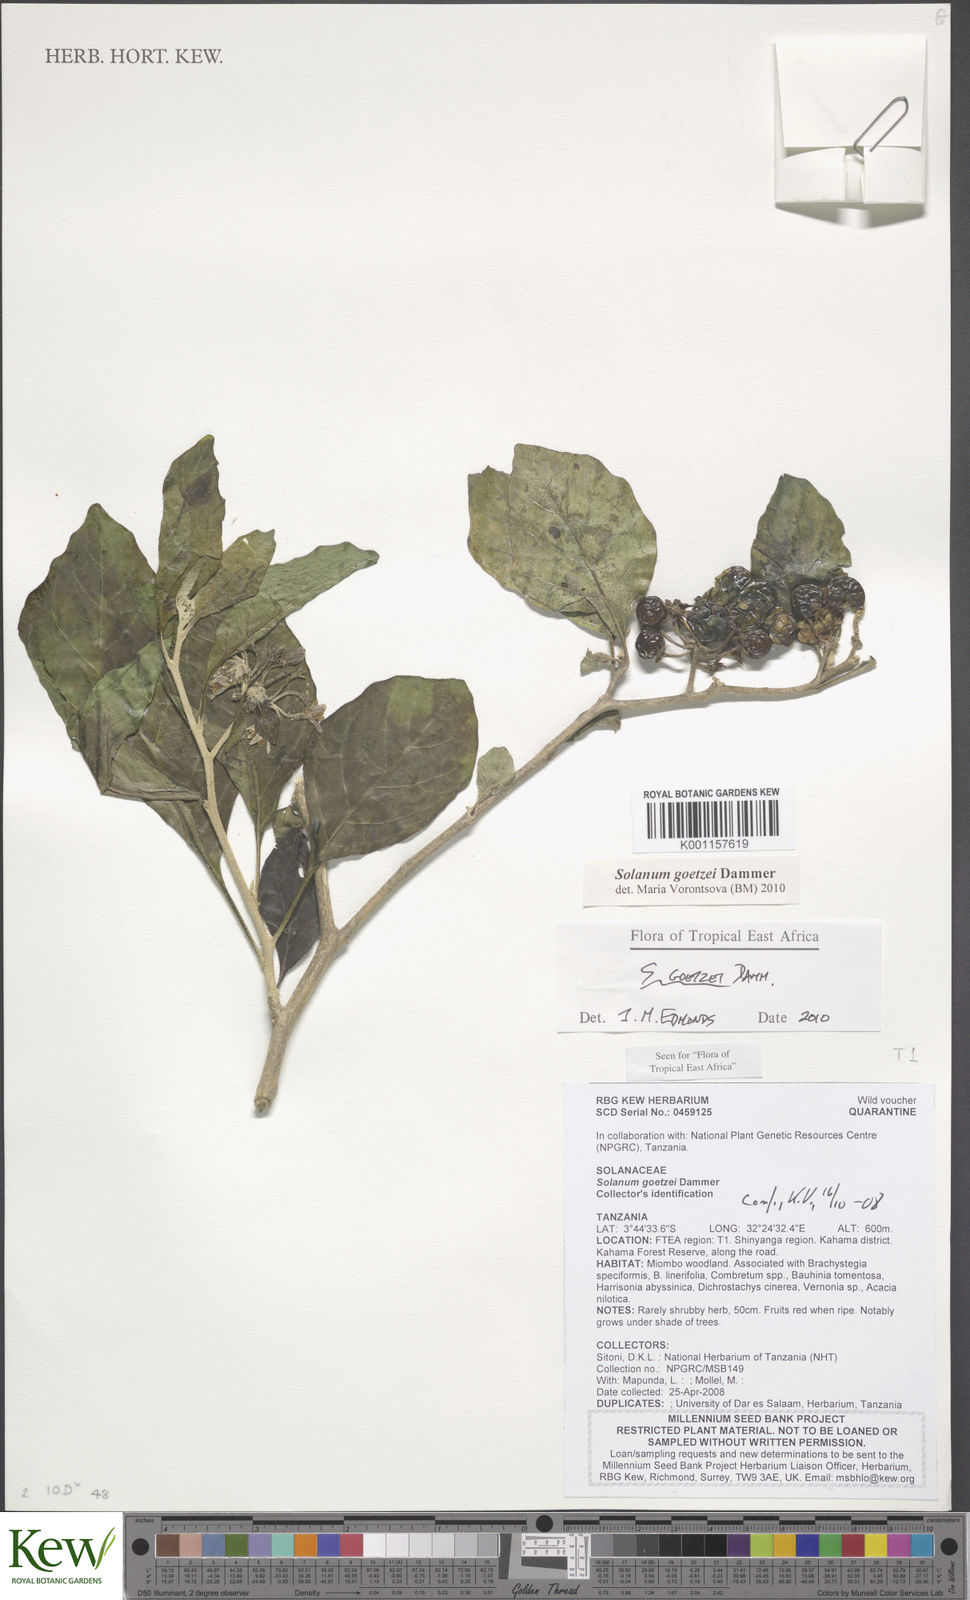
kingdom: Plantae
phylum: Tracheophyta
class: Magnoliopsida
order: Solanales
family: Solanaceae
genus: Solanum
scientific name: Solanum goetzei
